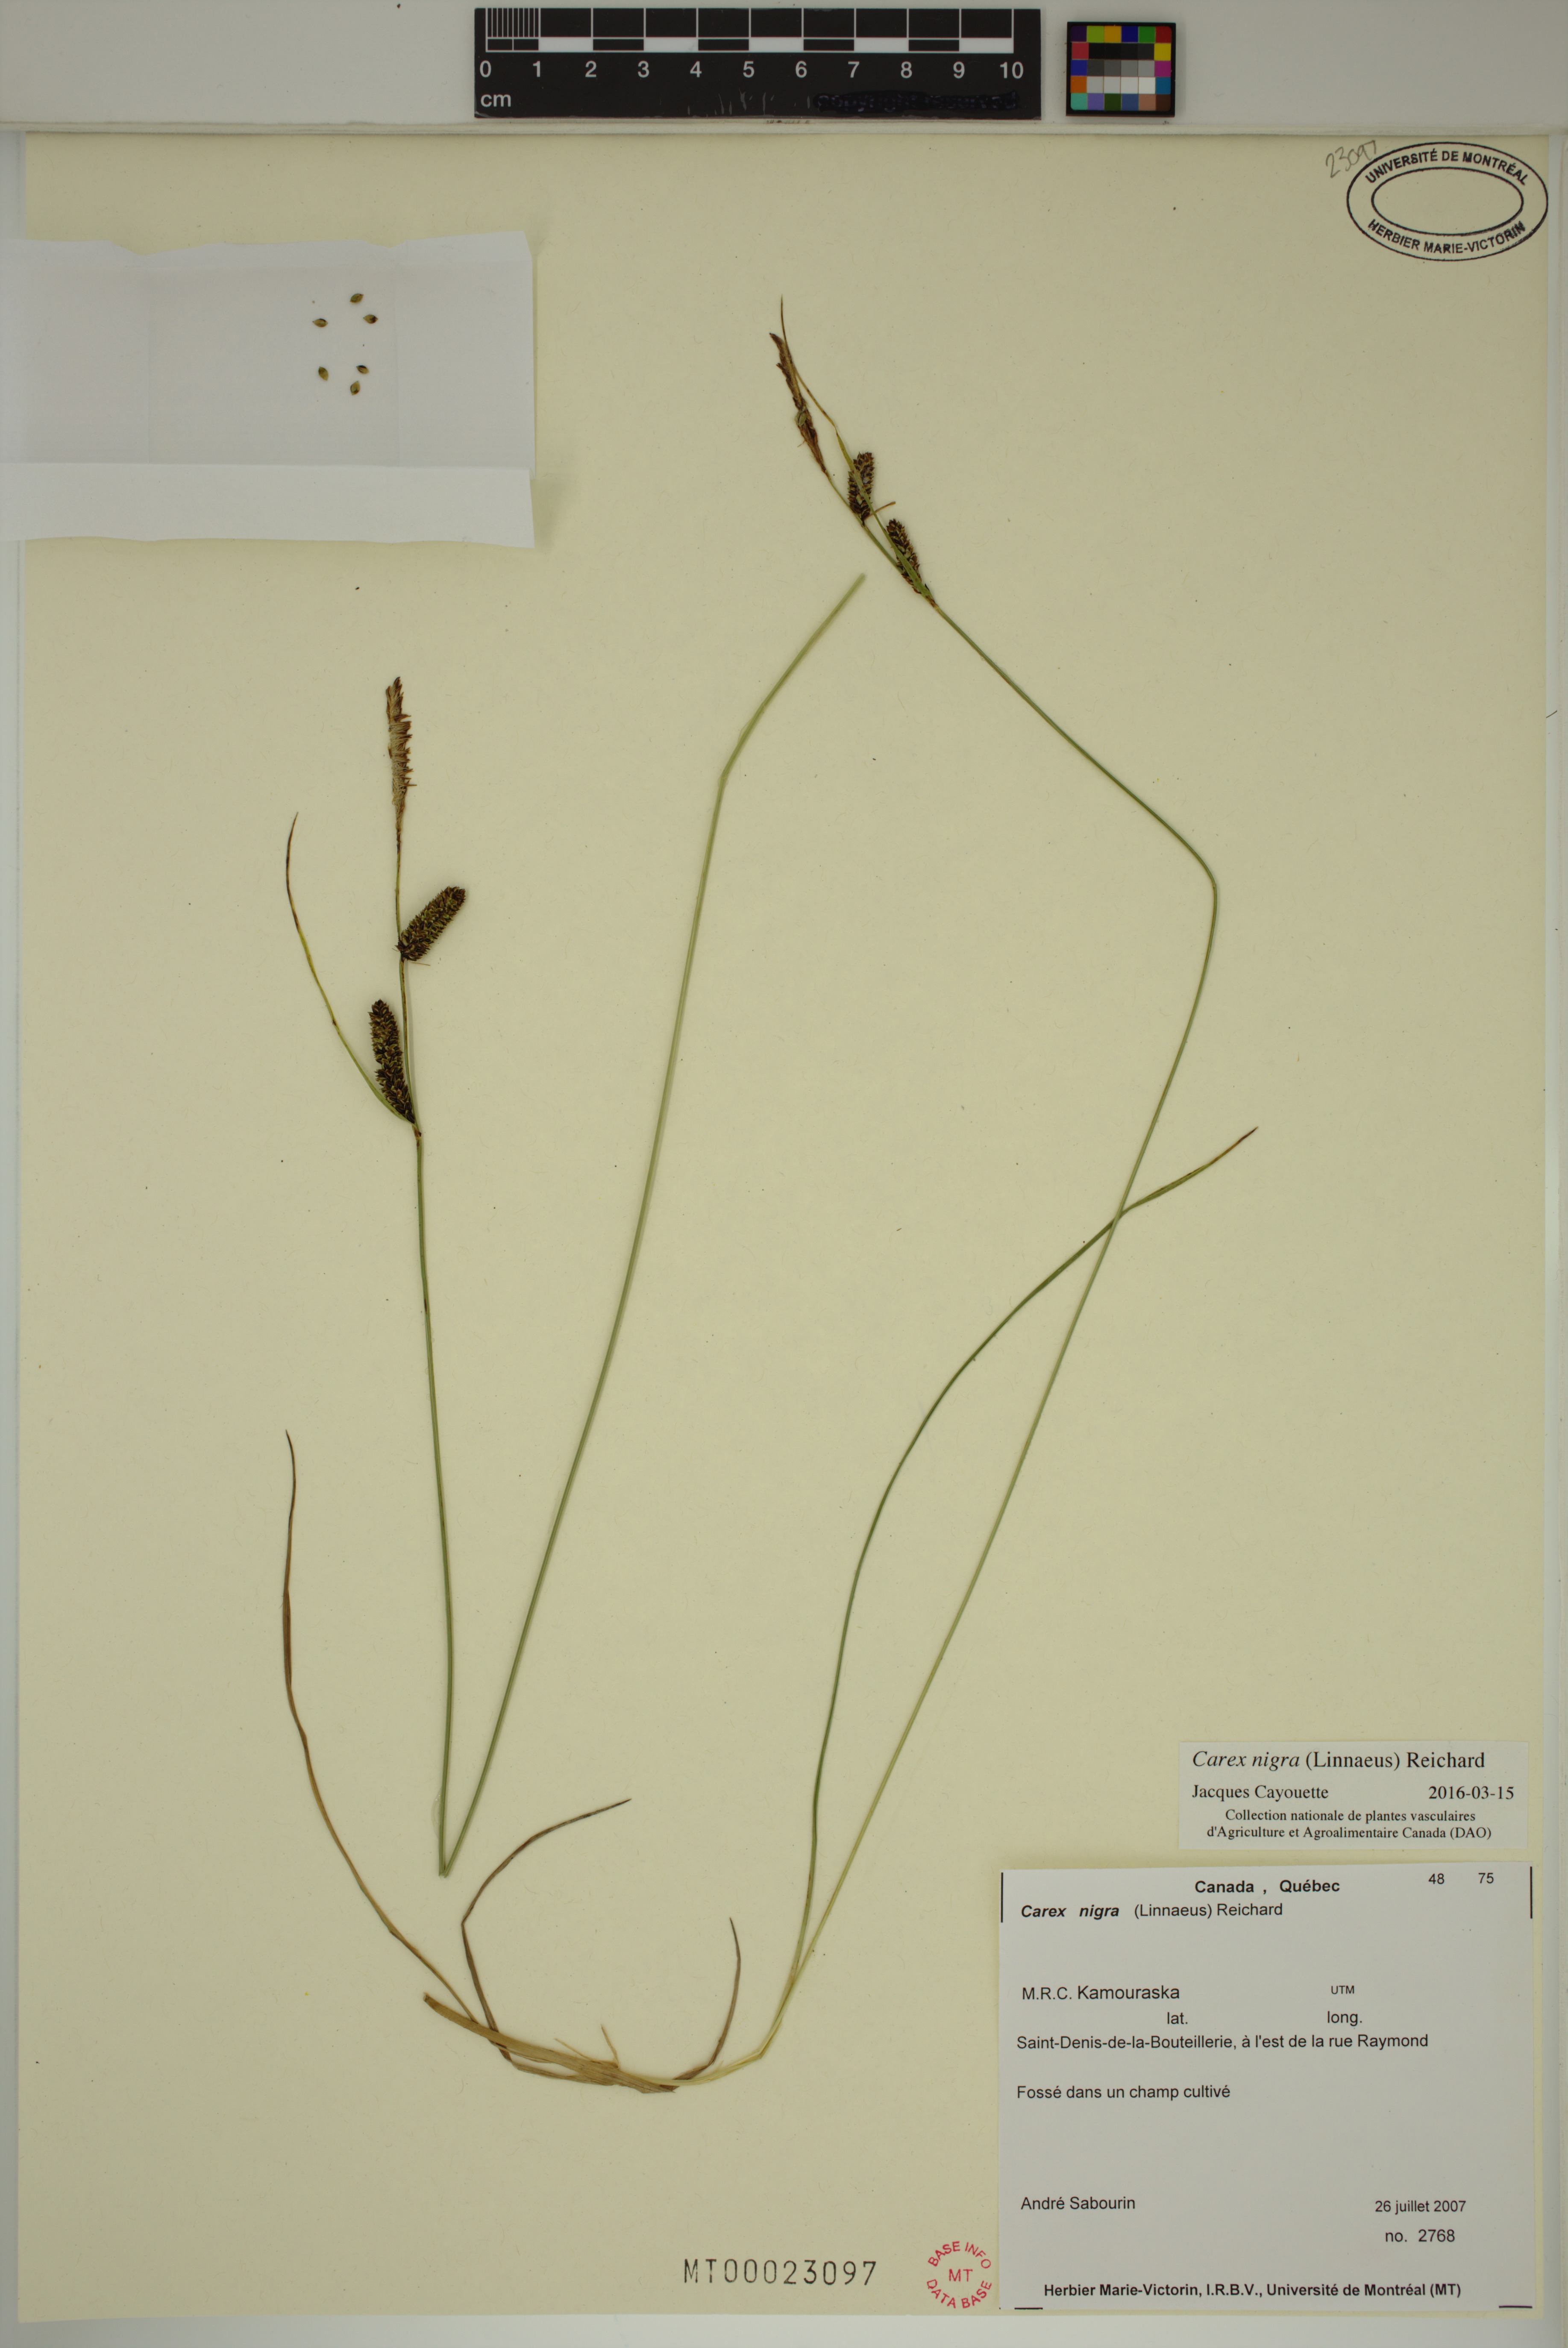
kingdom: Plantae
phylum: Tracheophyta
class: Liliopsida
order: Poales
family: Cyperaceae
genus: Carex
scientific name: Carex nigra
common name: Common sedge
